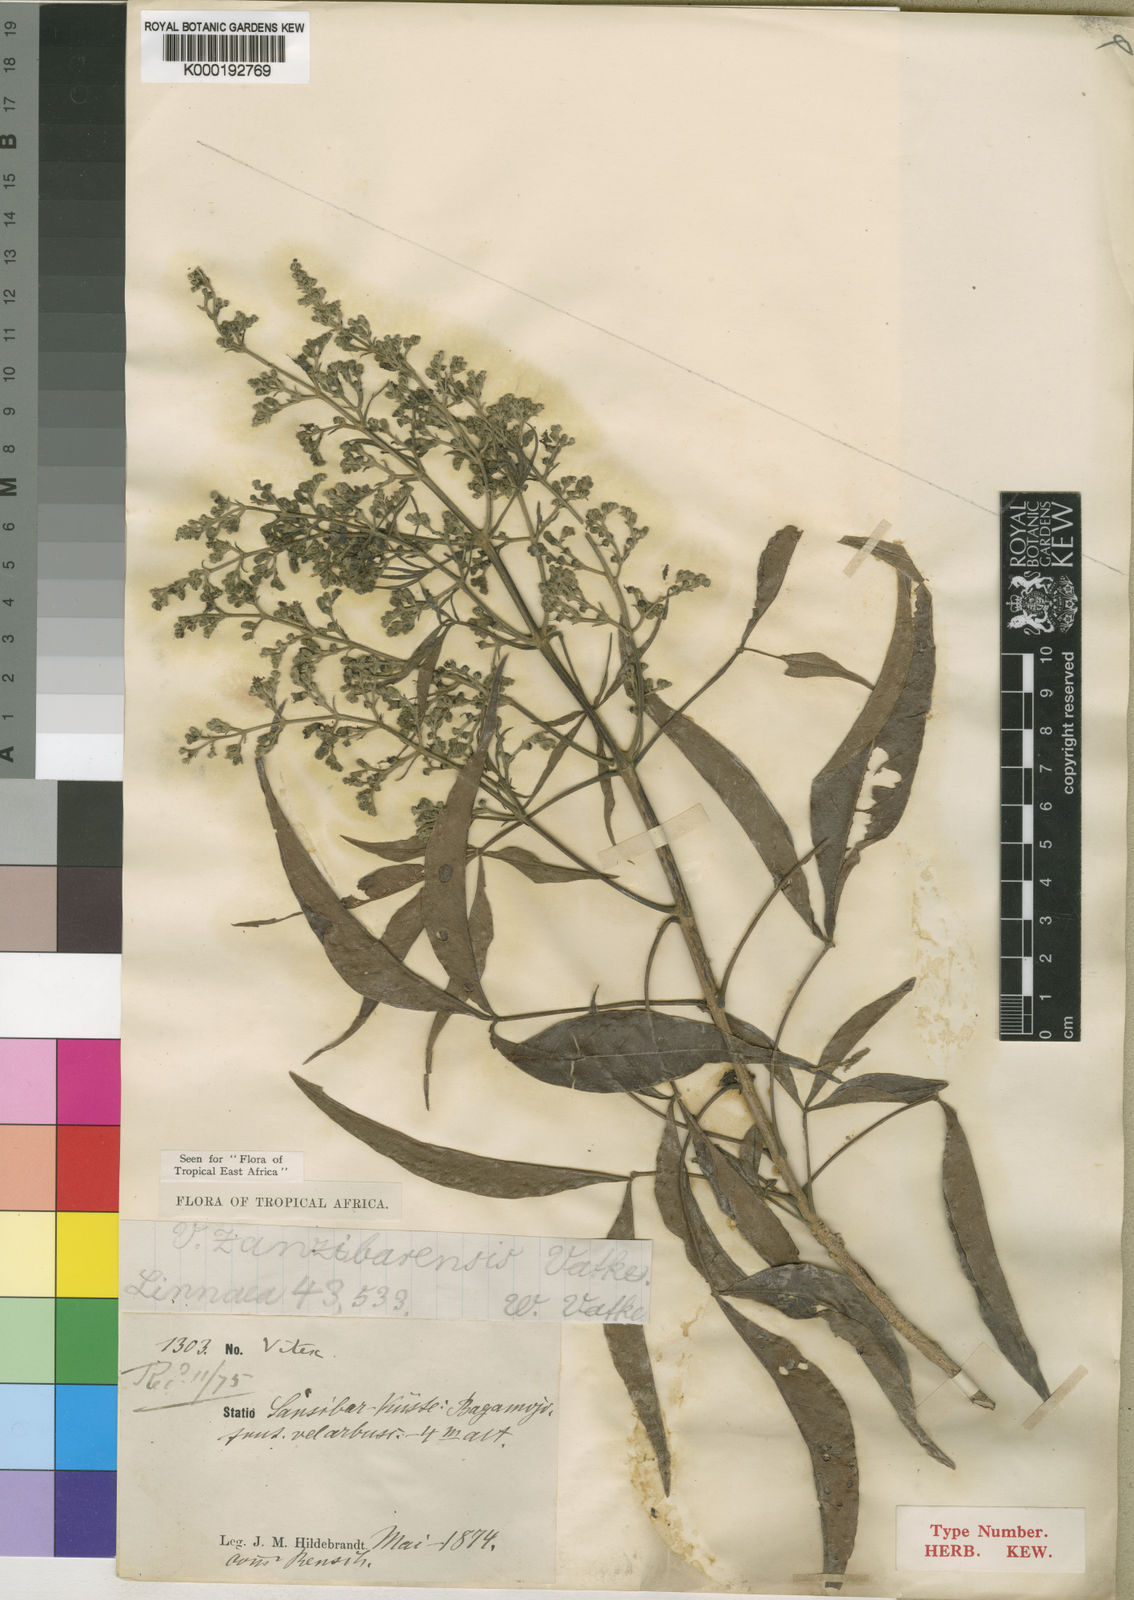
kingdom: Plantae
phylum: Tracheophyta
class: Magnoliopsida
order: Lamiales
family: Lamiaceae
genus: Vitex
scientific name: Vitex zanzibarensis
